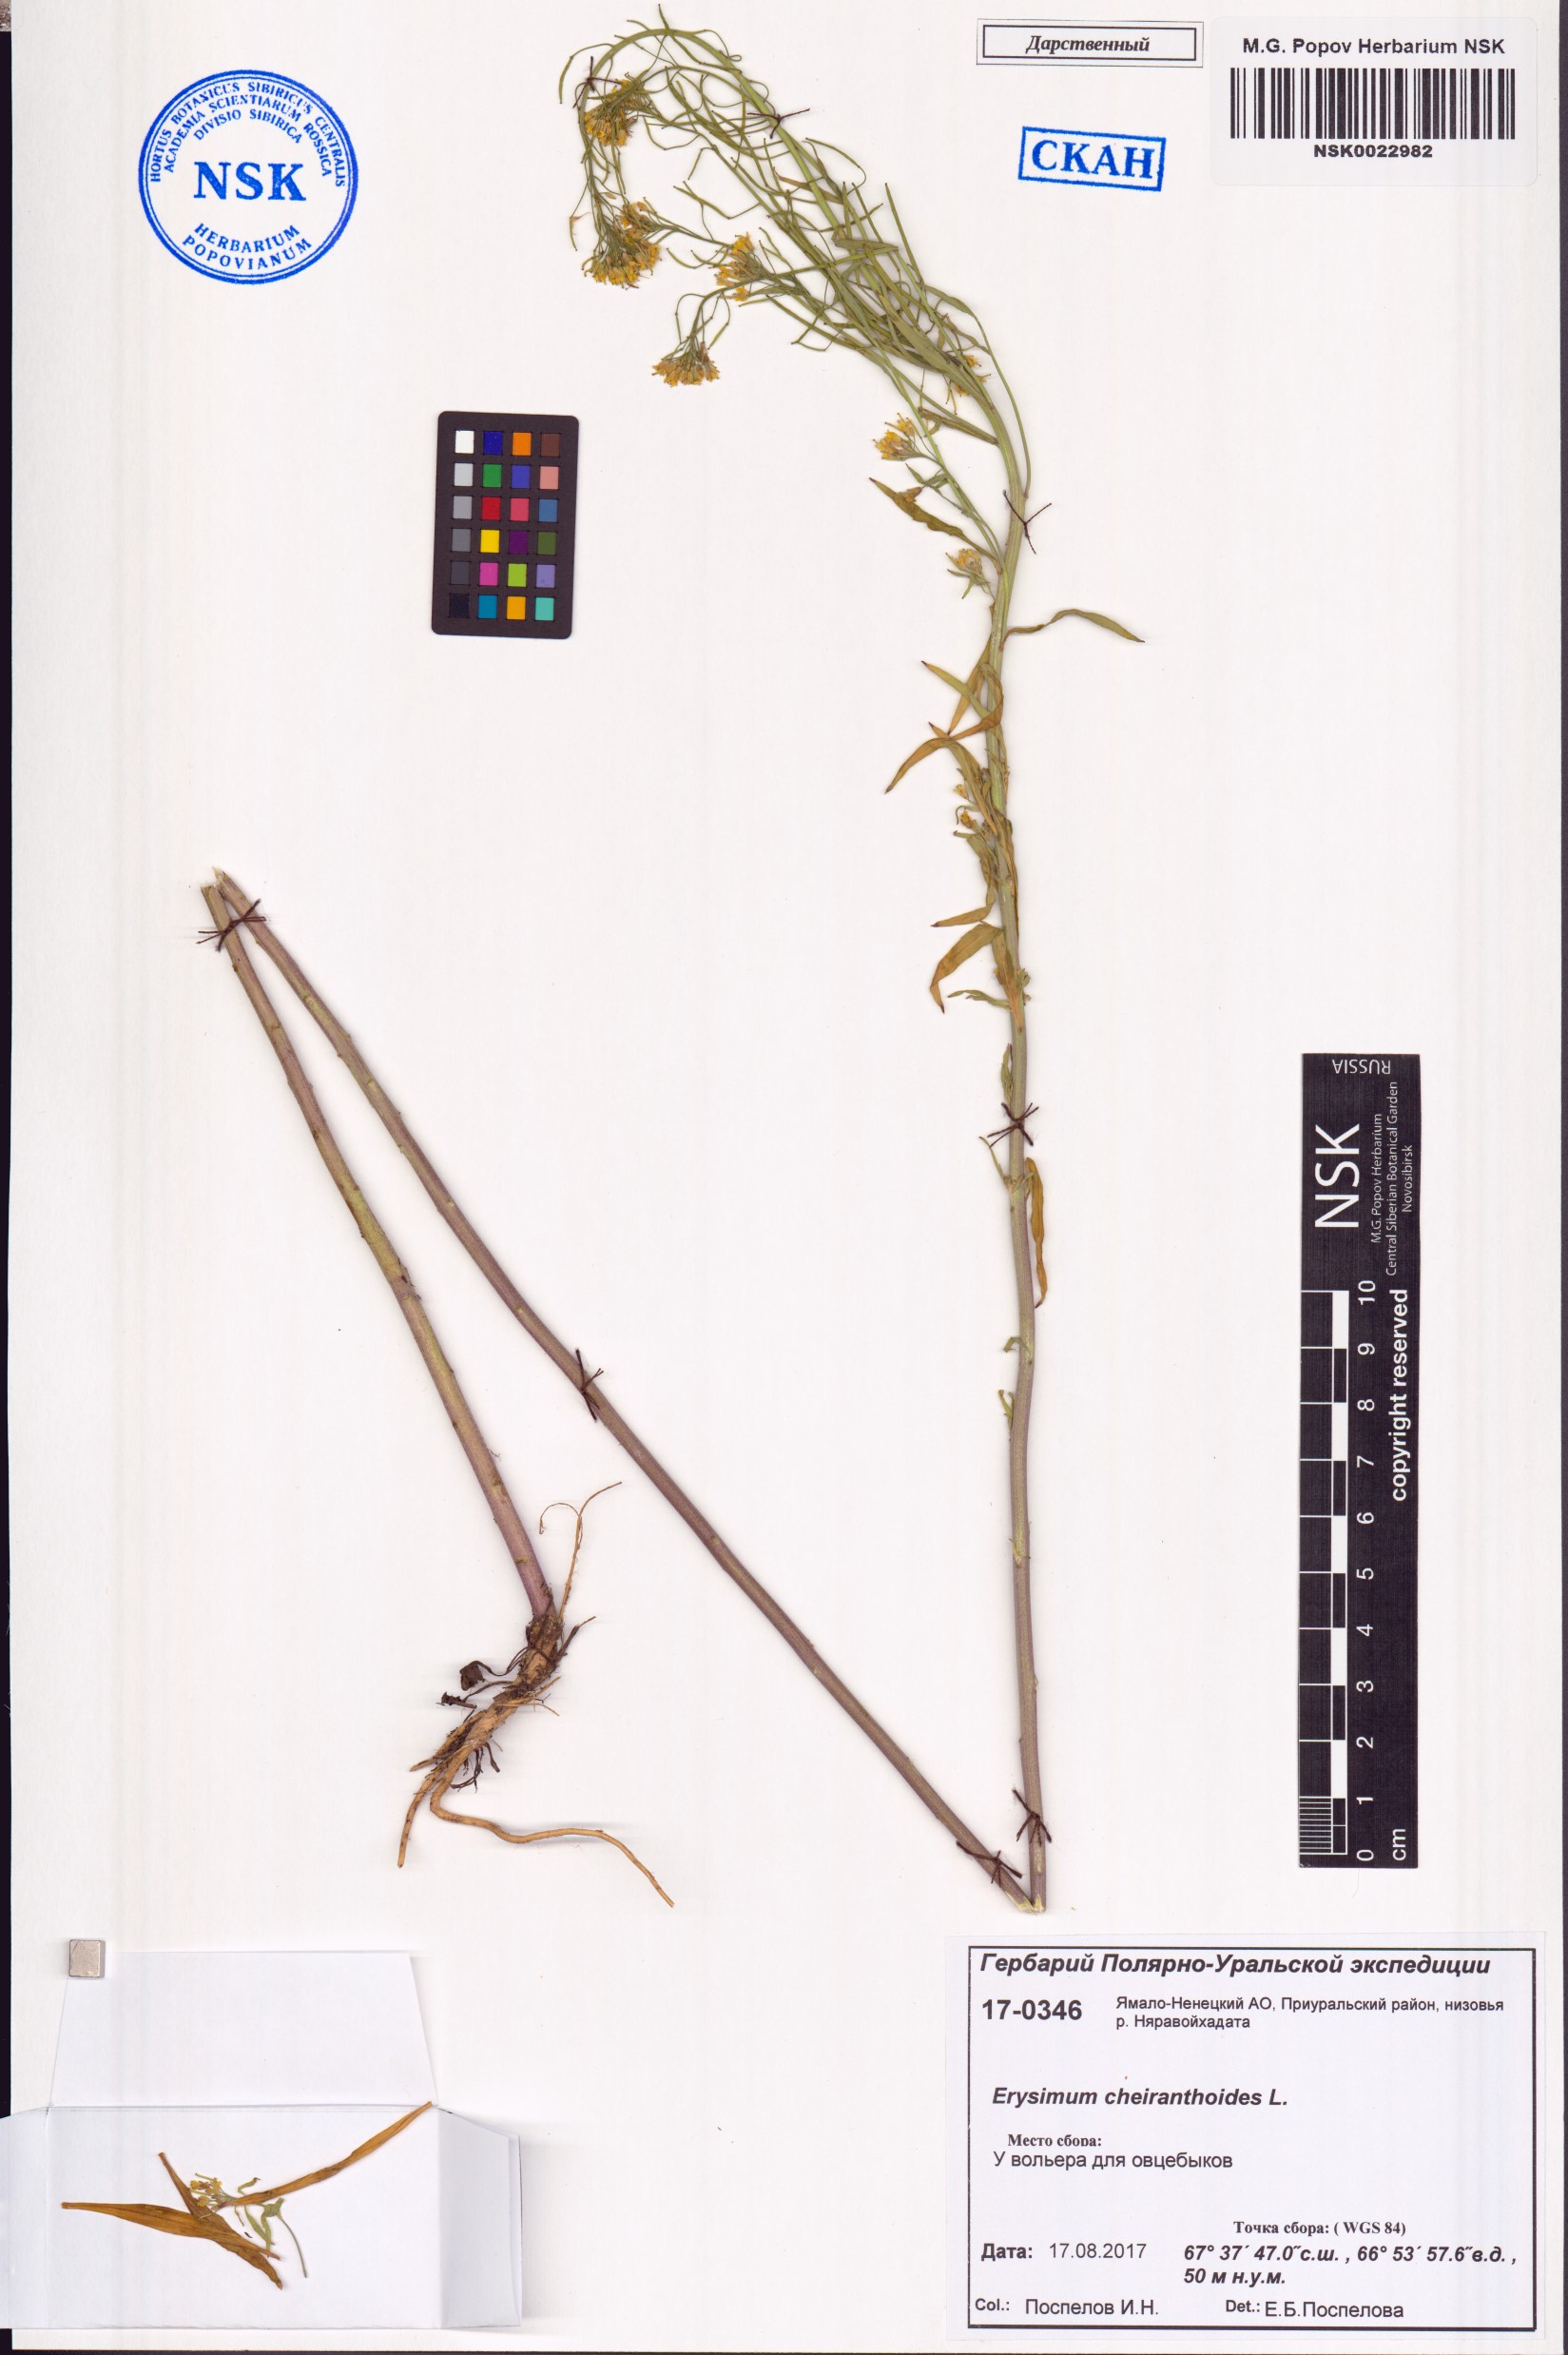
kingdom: Plantae
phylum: Tracheophyta
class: Magnoliopsida
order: Brassicales
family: Brassicaceae
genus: Erysimum
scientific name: Erysimum cheiranthoides
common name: Treacle mustard
